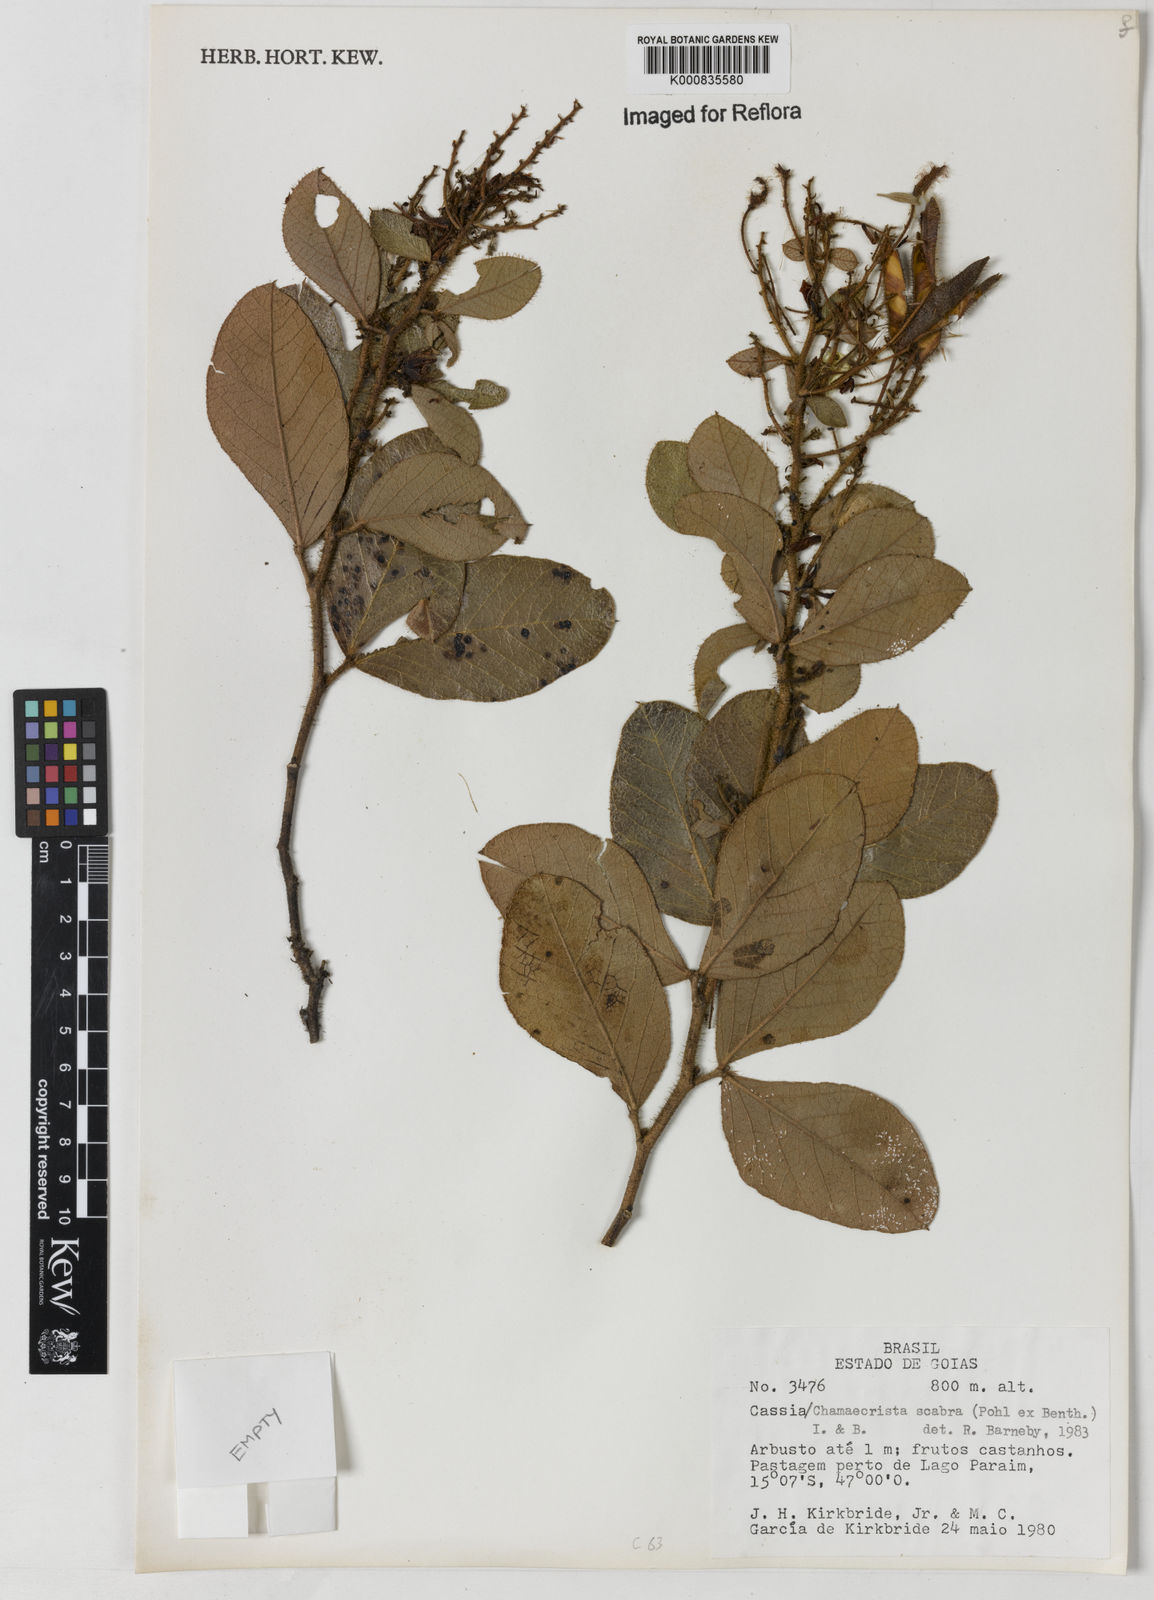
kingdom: Plantae
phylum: Tracheophyta
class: Magnoliopsida
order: Fabales
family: Fabaceae
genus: Chamaecrista
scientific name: Chamaecrista scabra
